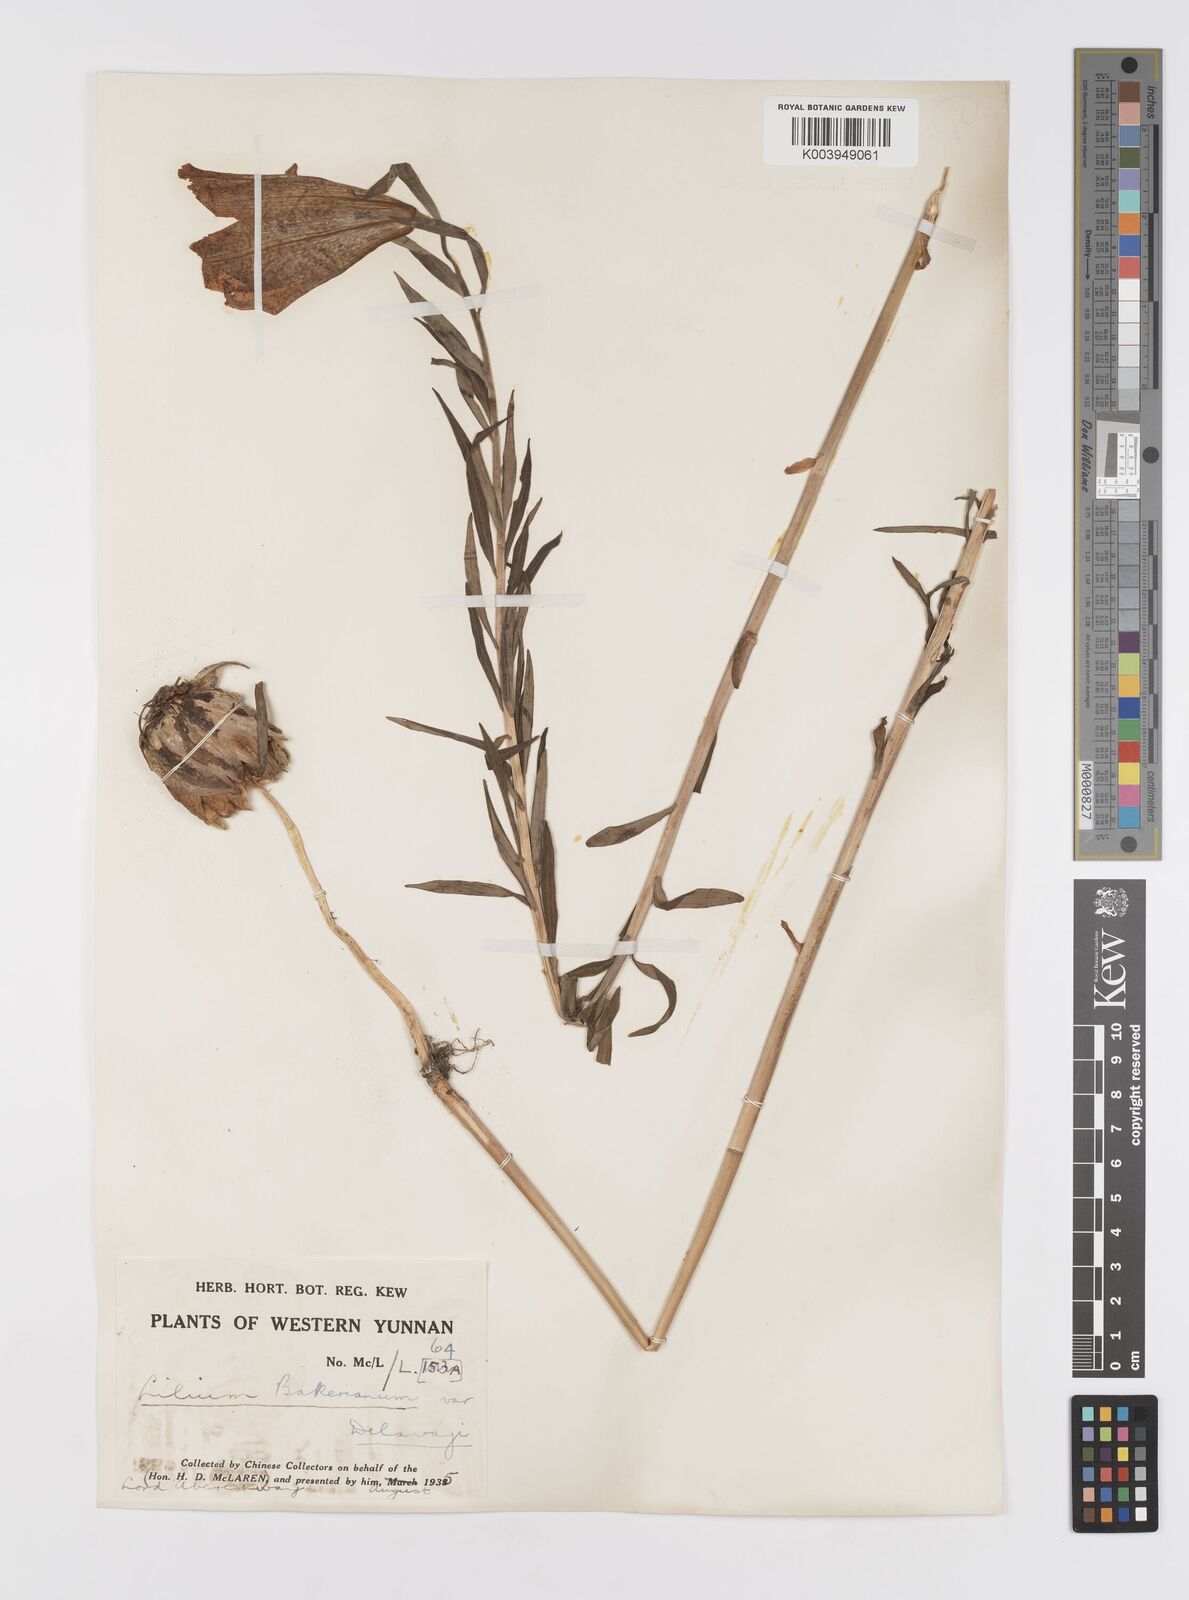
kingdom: Plantae
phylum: Tracheophyta
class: Liliopsida
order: Liliales
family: Liliaceae
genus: Lilium
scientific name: Lilium bakerianum
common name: Baker's lily
